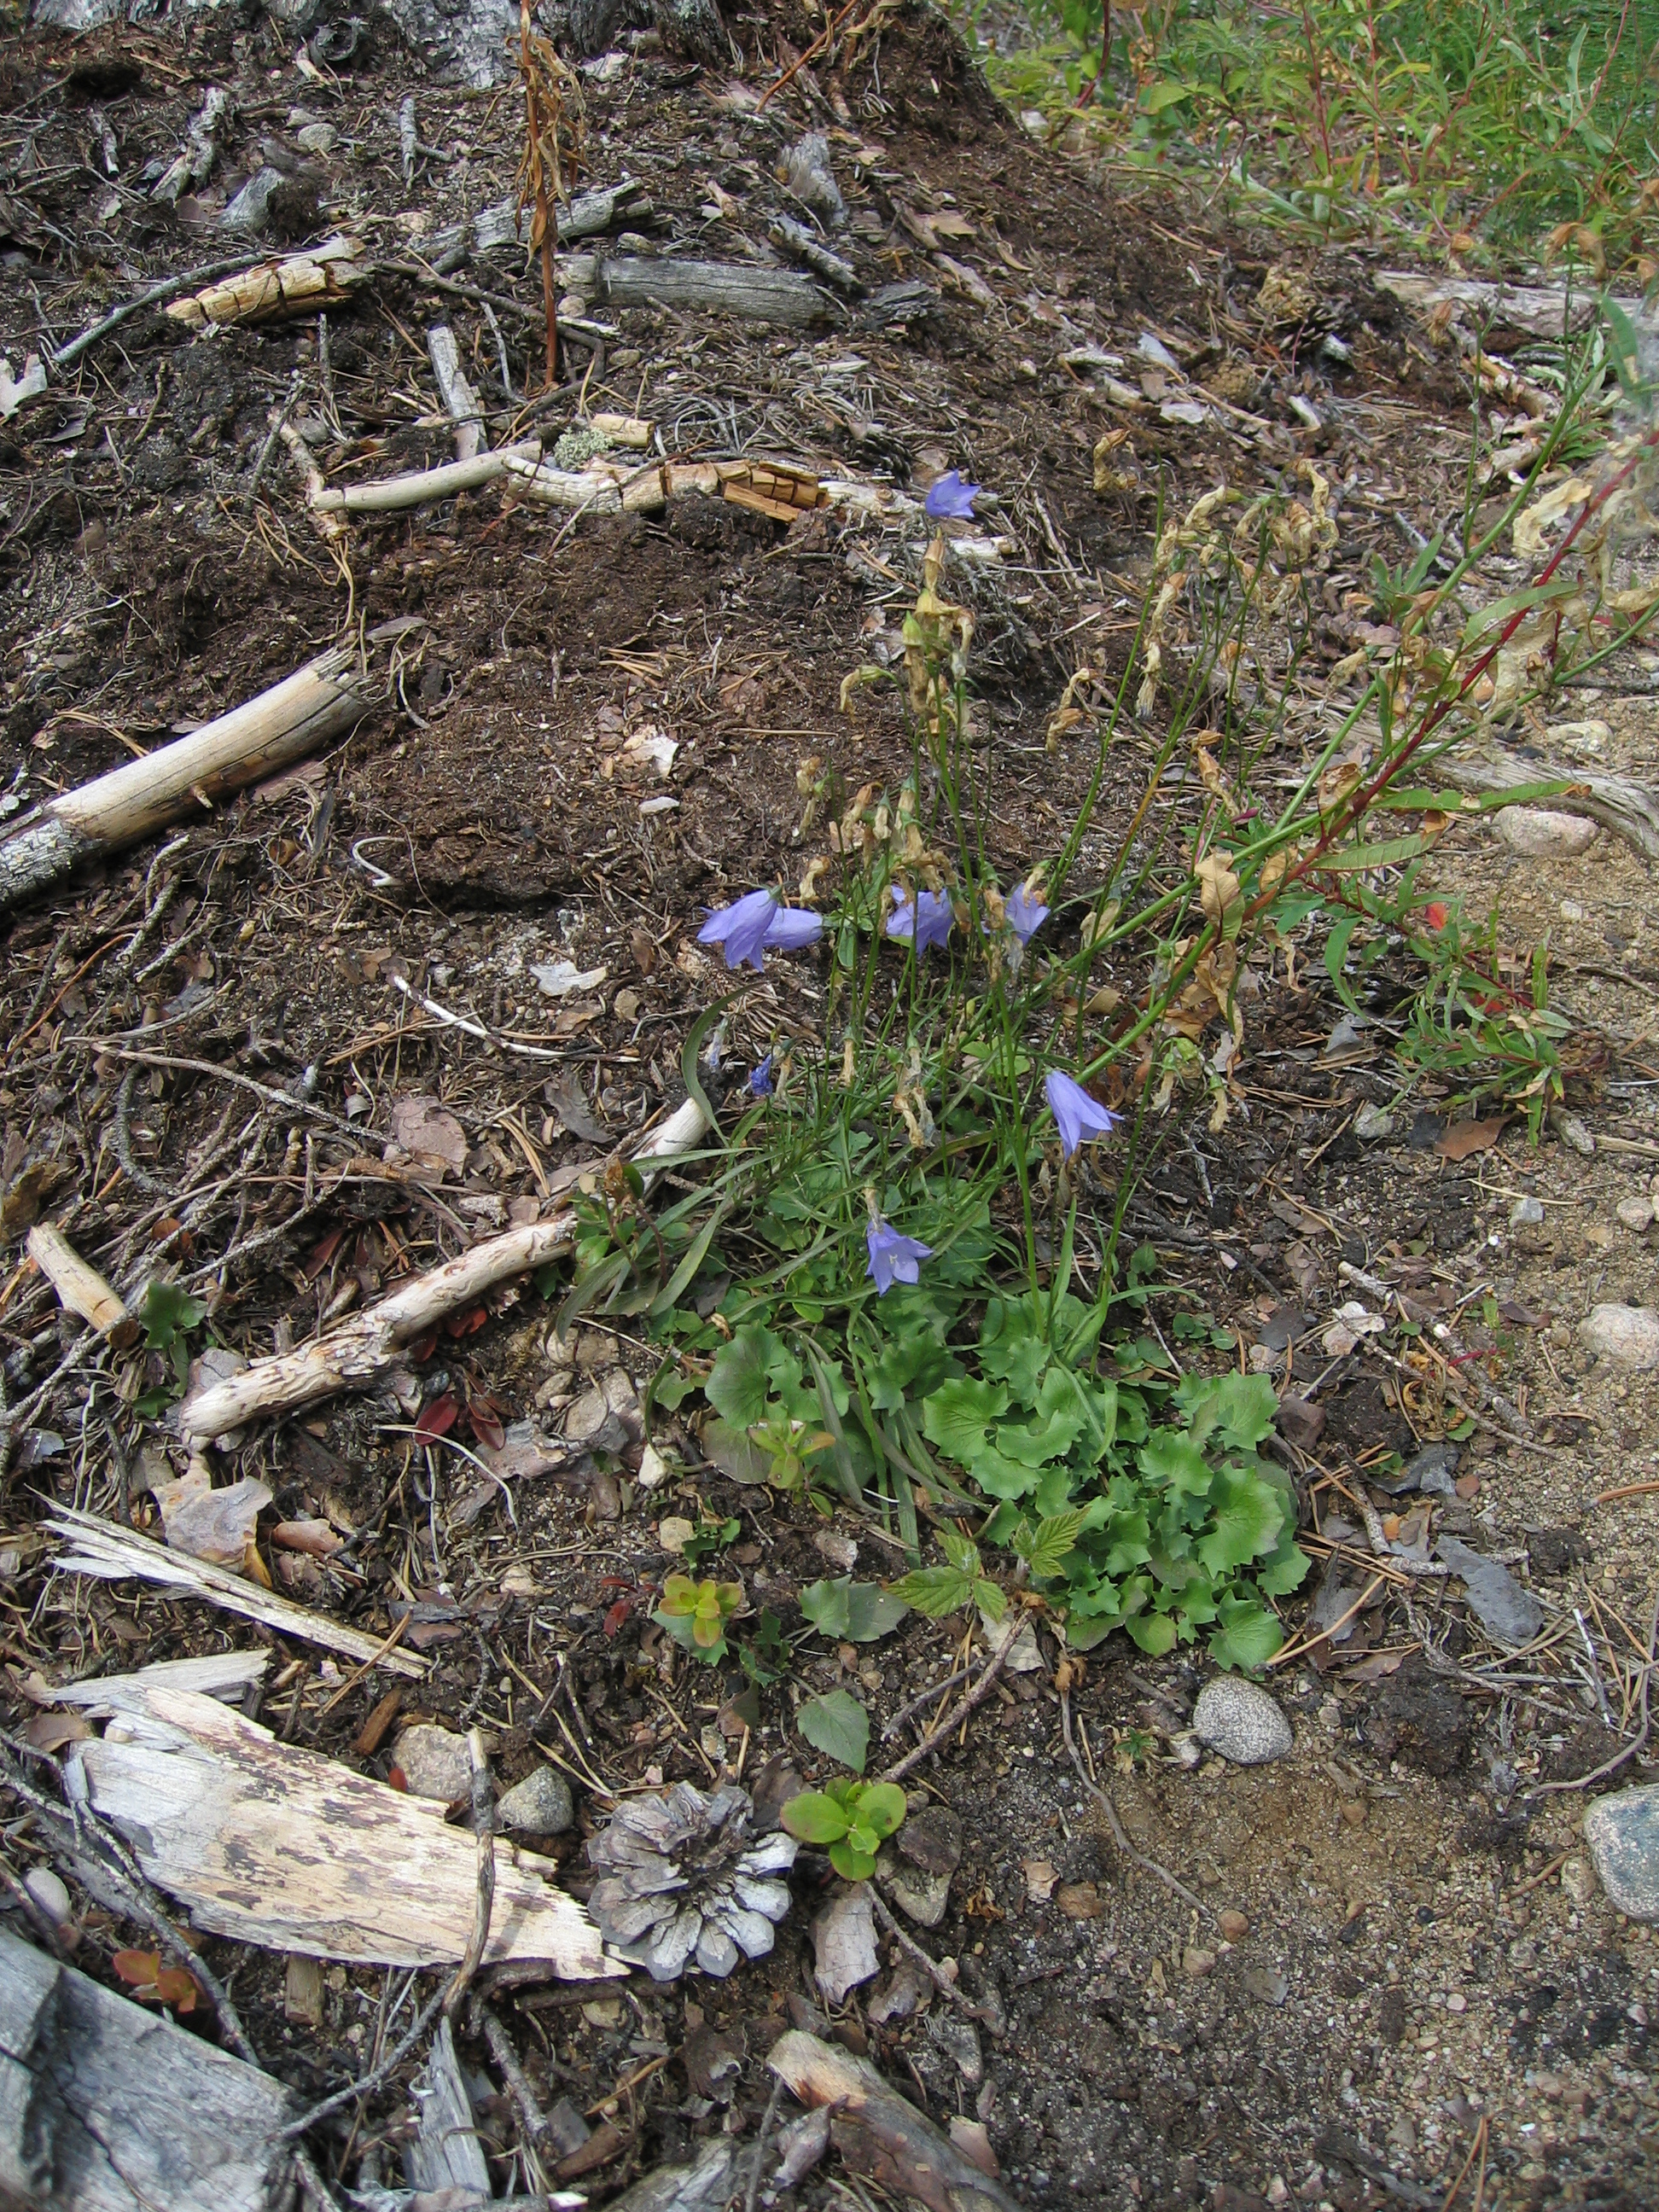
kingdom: Plantae
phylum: Tracheophyta
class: Magnoliopsida
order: Asterales
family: Campanulaceae
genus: Campanula
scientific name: Campanula rotundifolia
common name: Harebell
